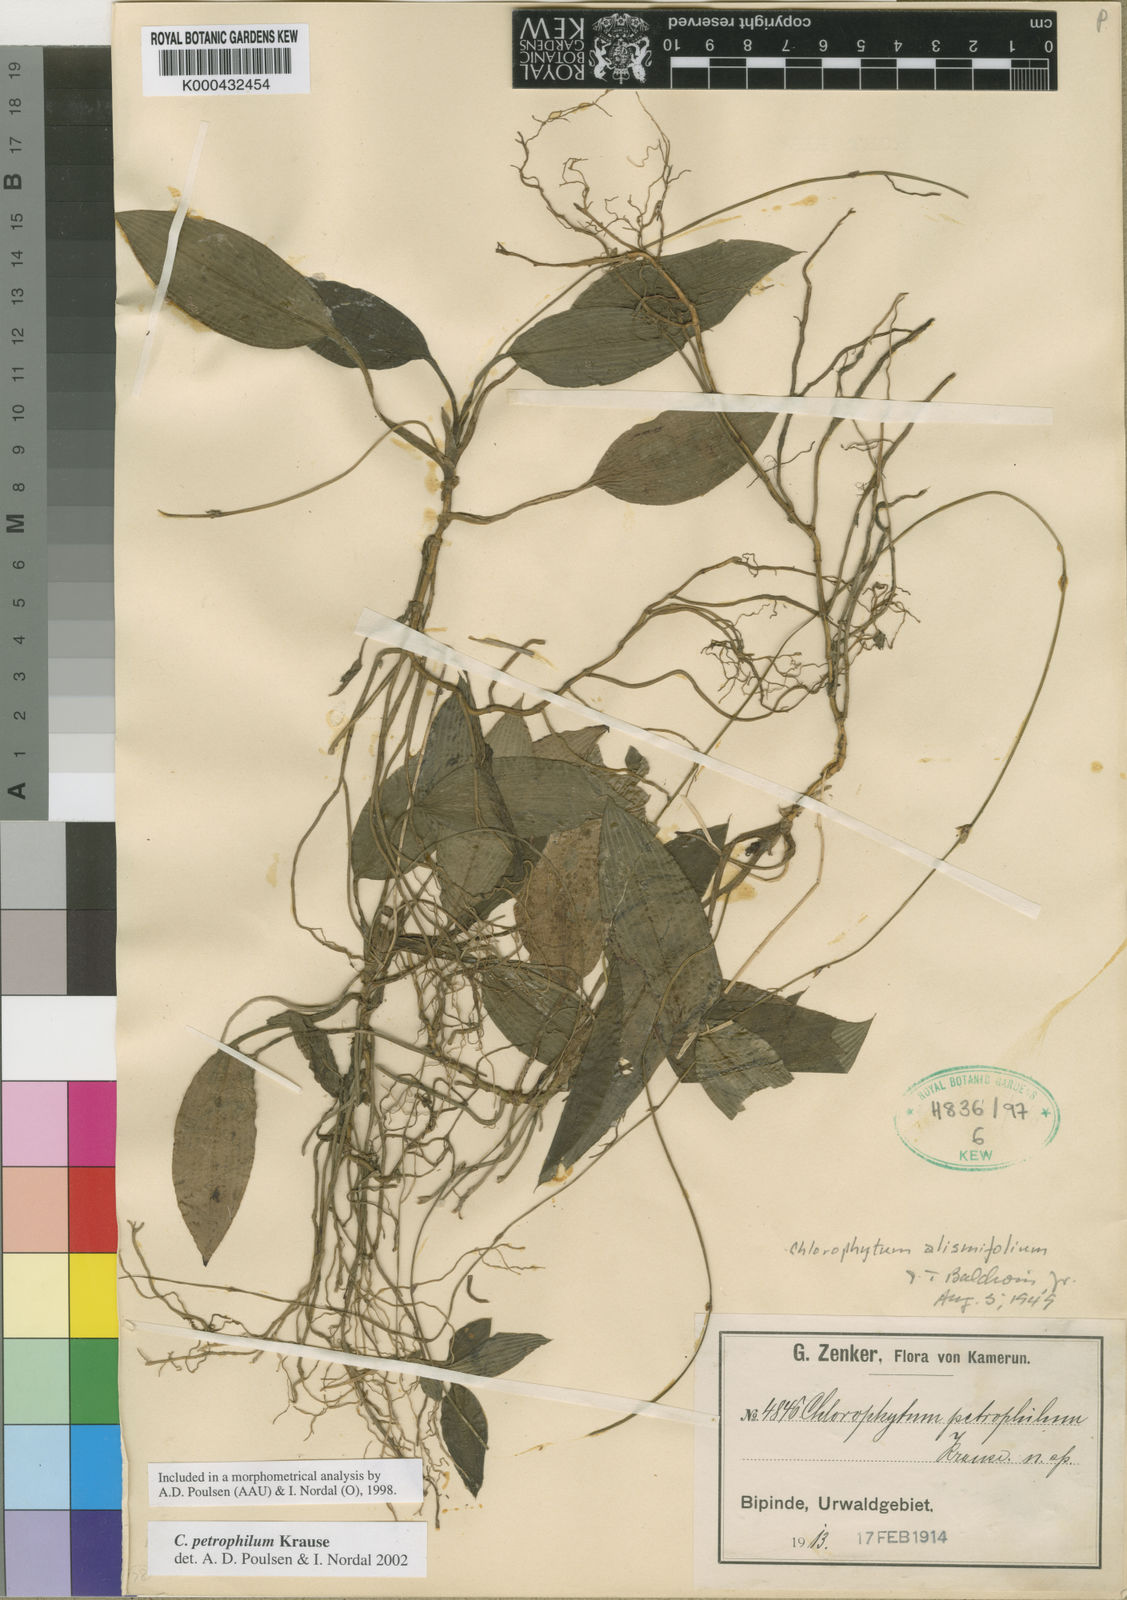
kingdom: Plantae
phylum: Tracheophyta
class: Liliopsida
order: Asparagales
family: Asparagaceae
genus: Chlorophytum
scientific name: Chlorophytum petrophilum
